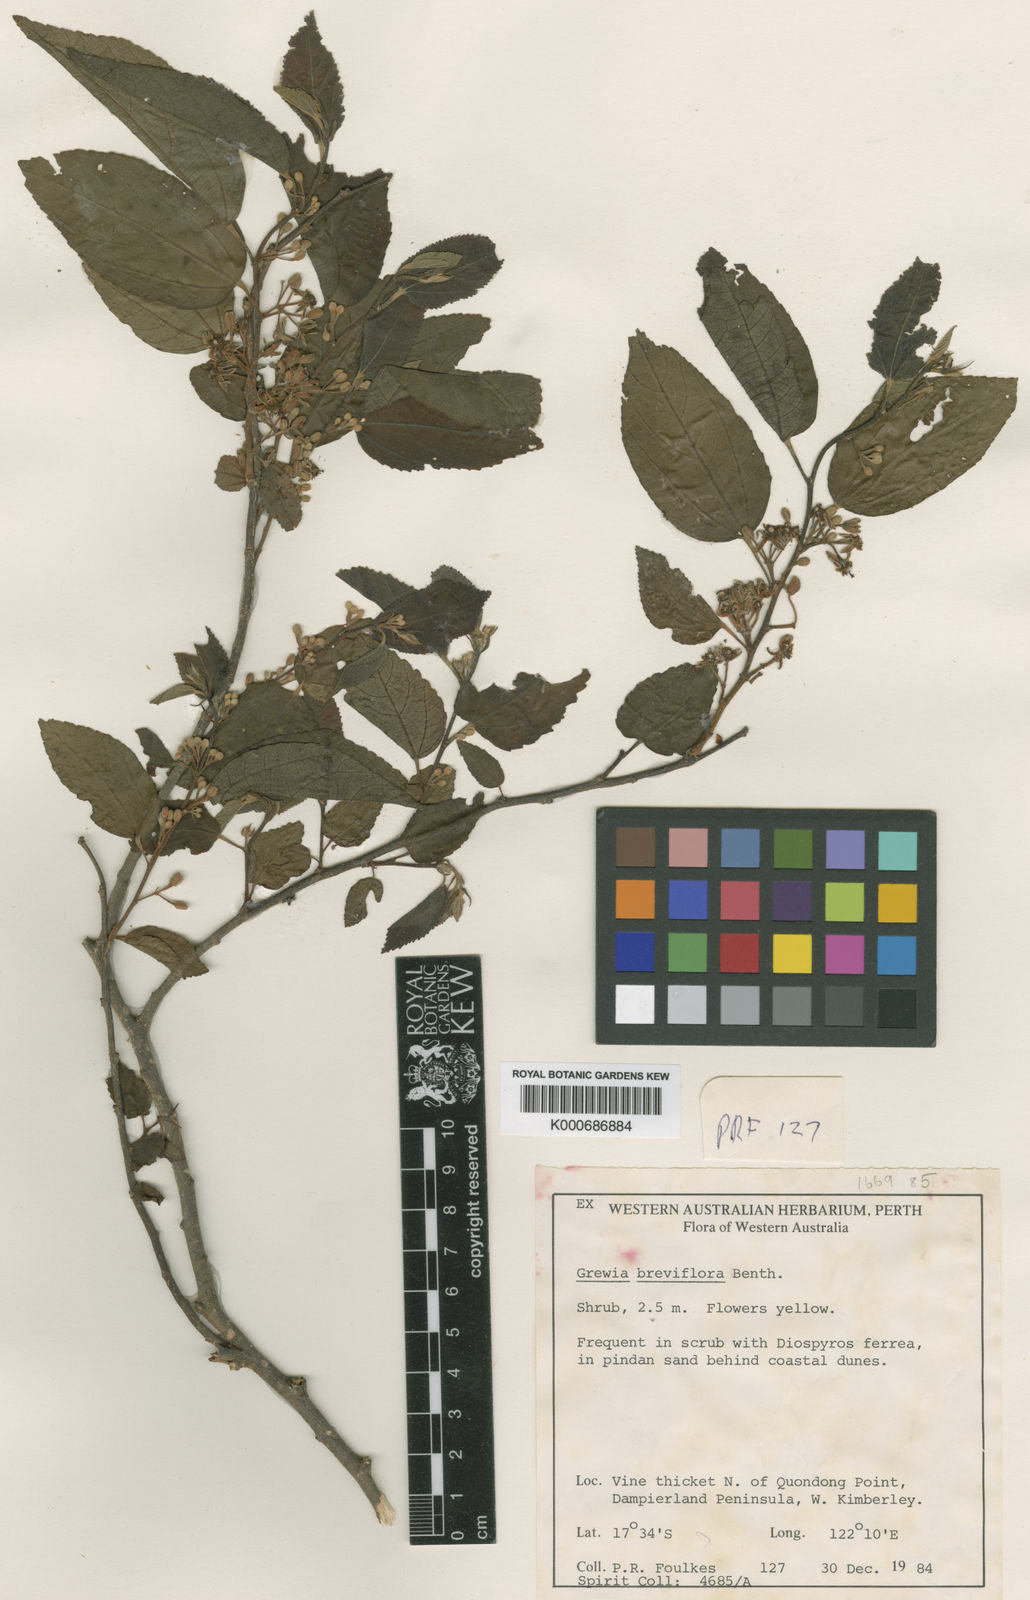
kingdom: Plantae
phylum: Tracheophyta
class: Magnoliopsida
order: Malvales
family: Malvaceae
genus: Grewia
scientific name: Grewia breviflora
